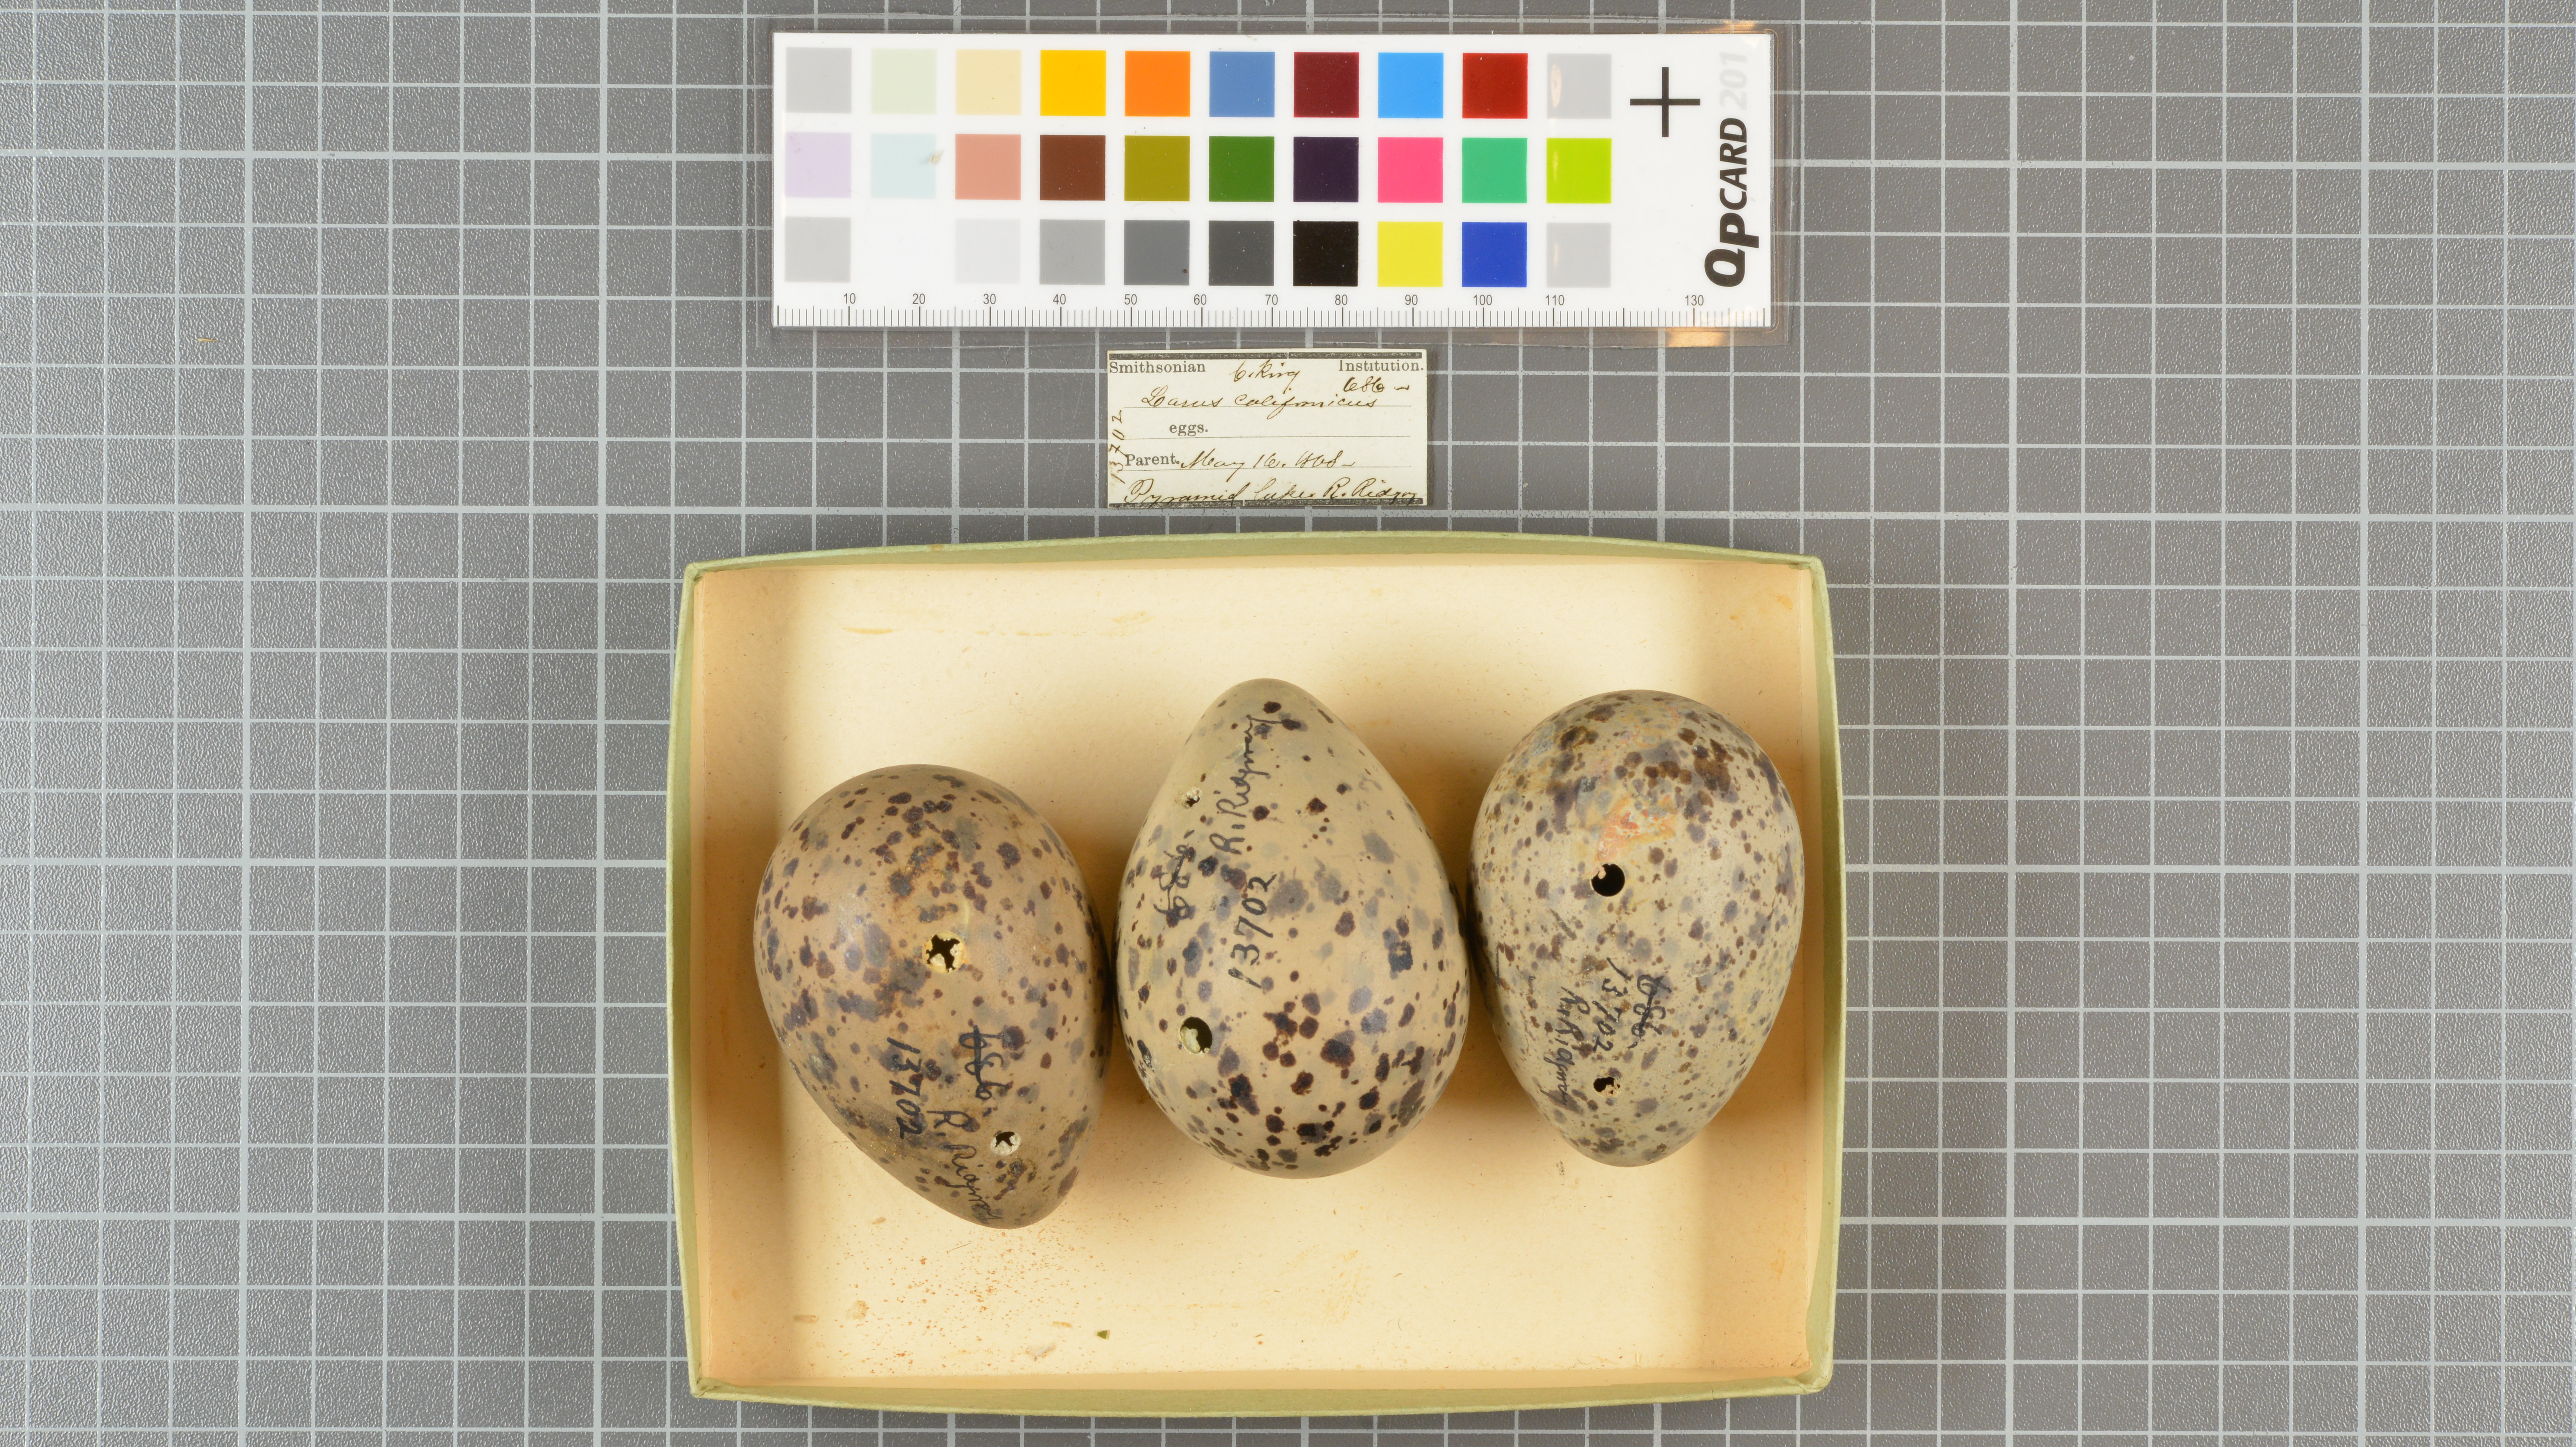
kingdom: Animalia
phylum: Chordata
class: Aves
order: Charadriiformes
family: Laridae
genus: Larus
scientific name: Larus californicus
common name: California gull
